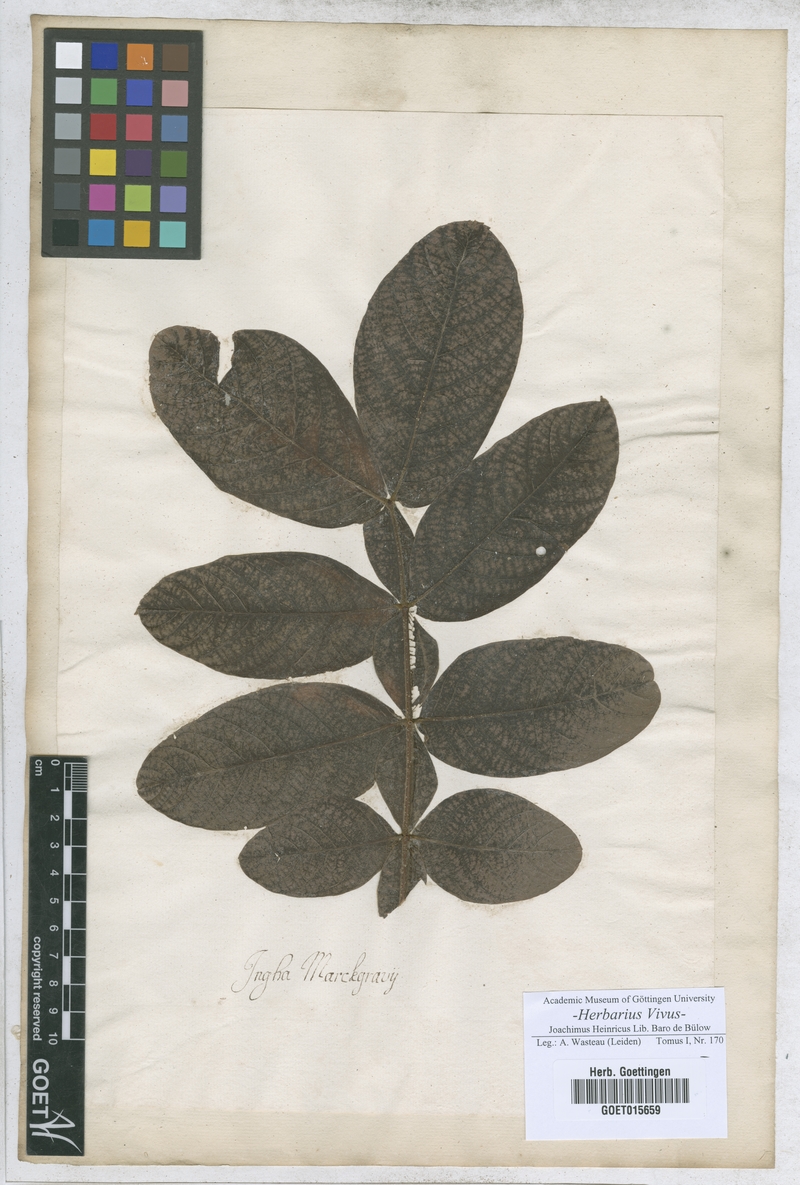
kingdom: Plantae
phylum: Tracheophyta
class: Magnoliopsida
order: Fabales
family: Fabaceae
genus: Inga
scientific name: Inga
